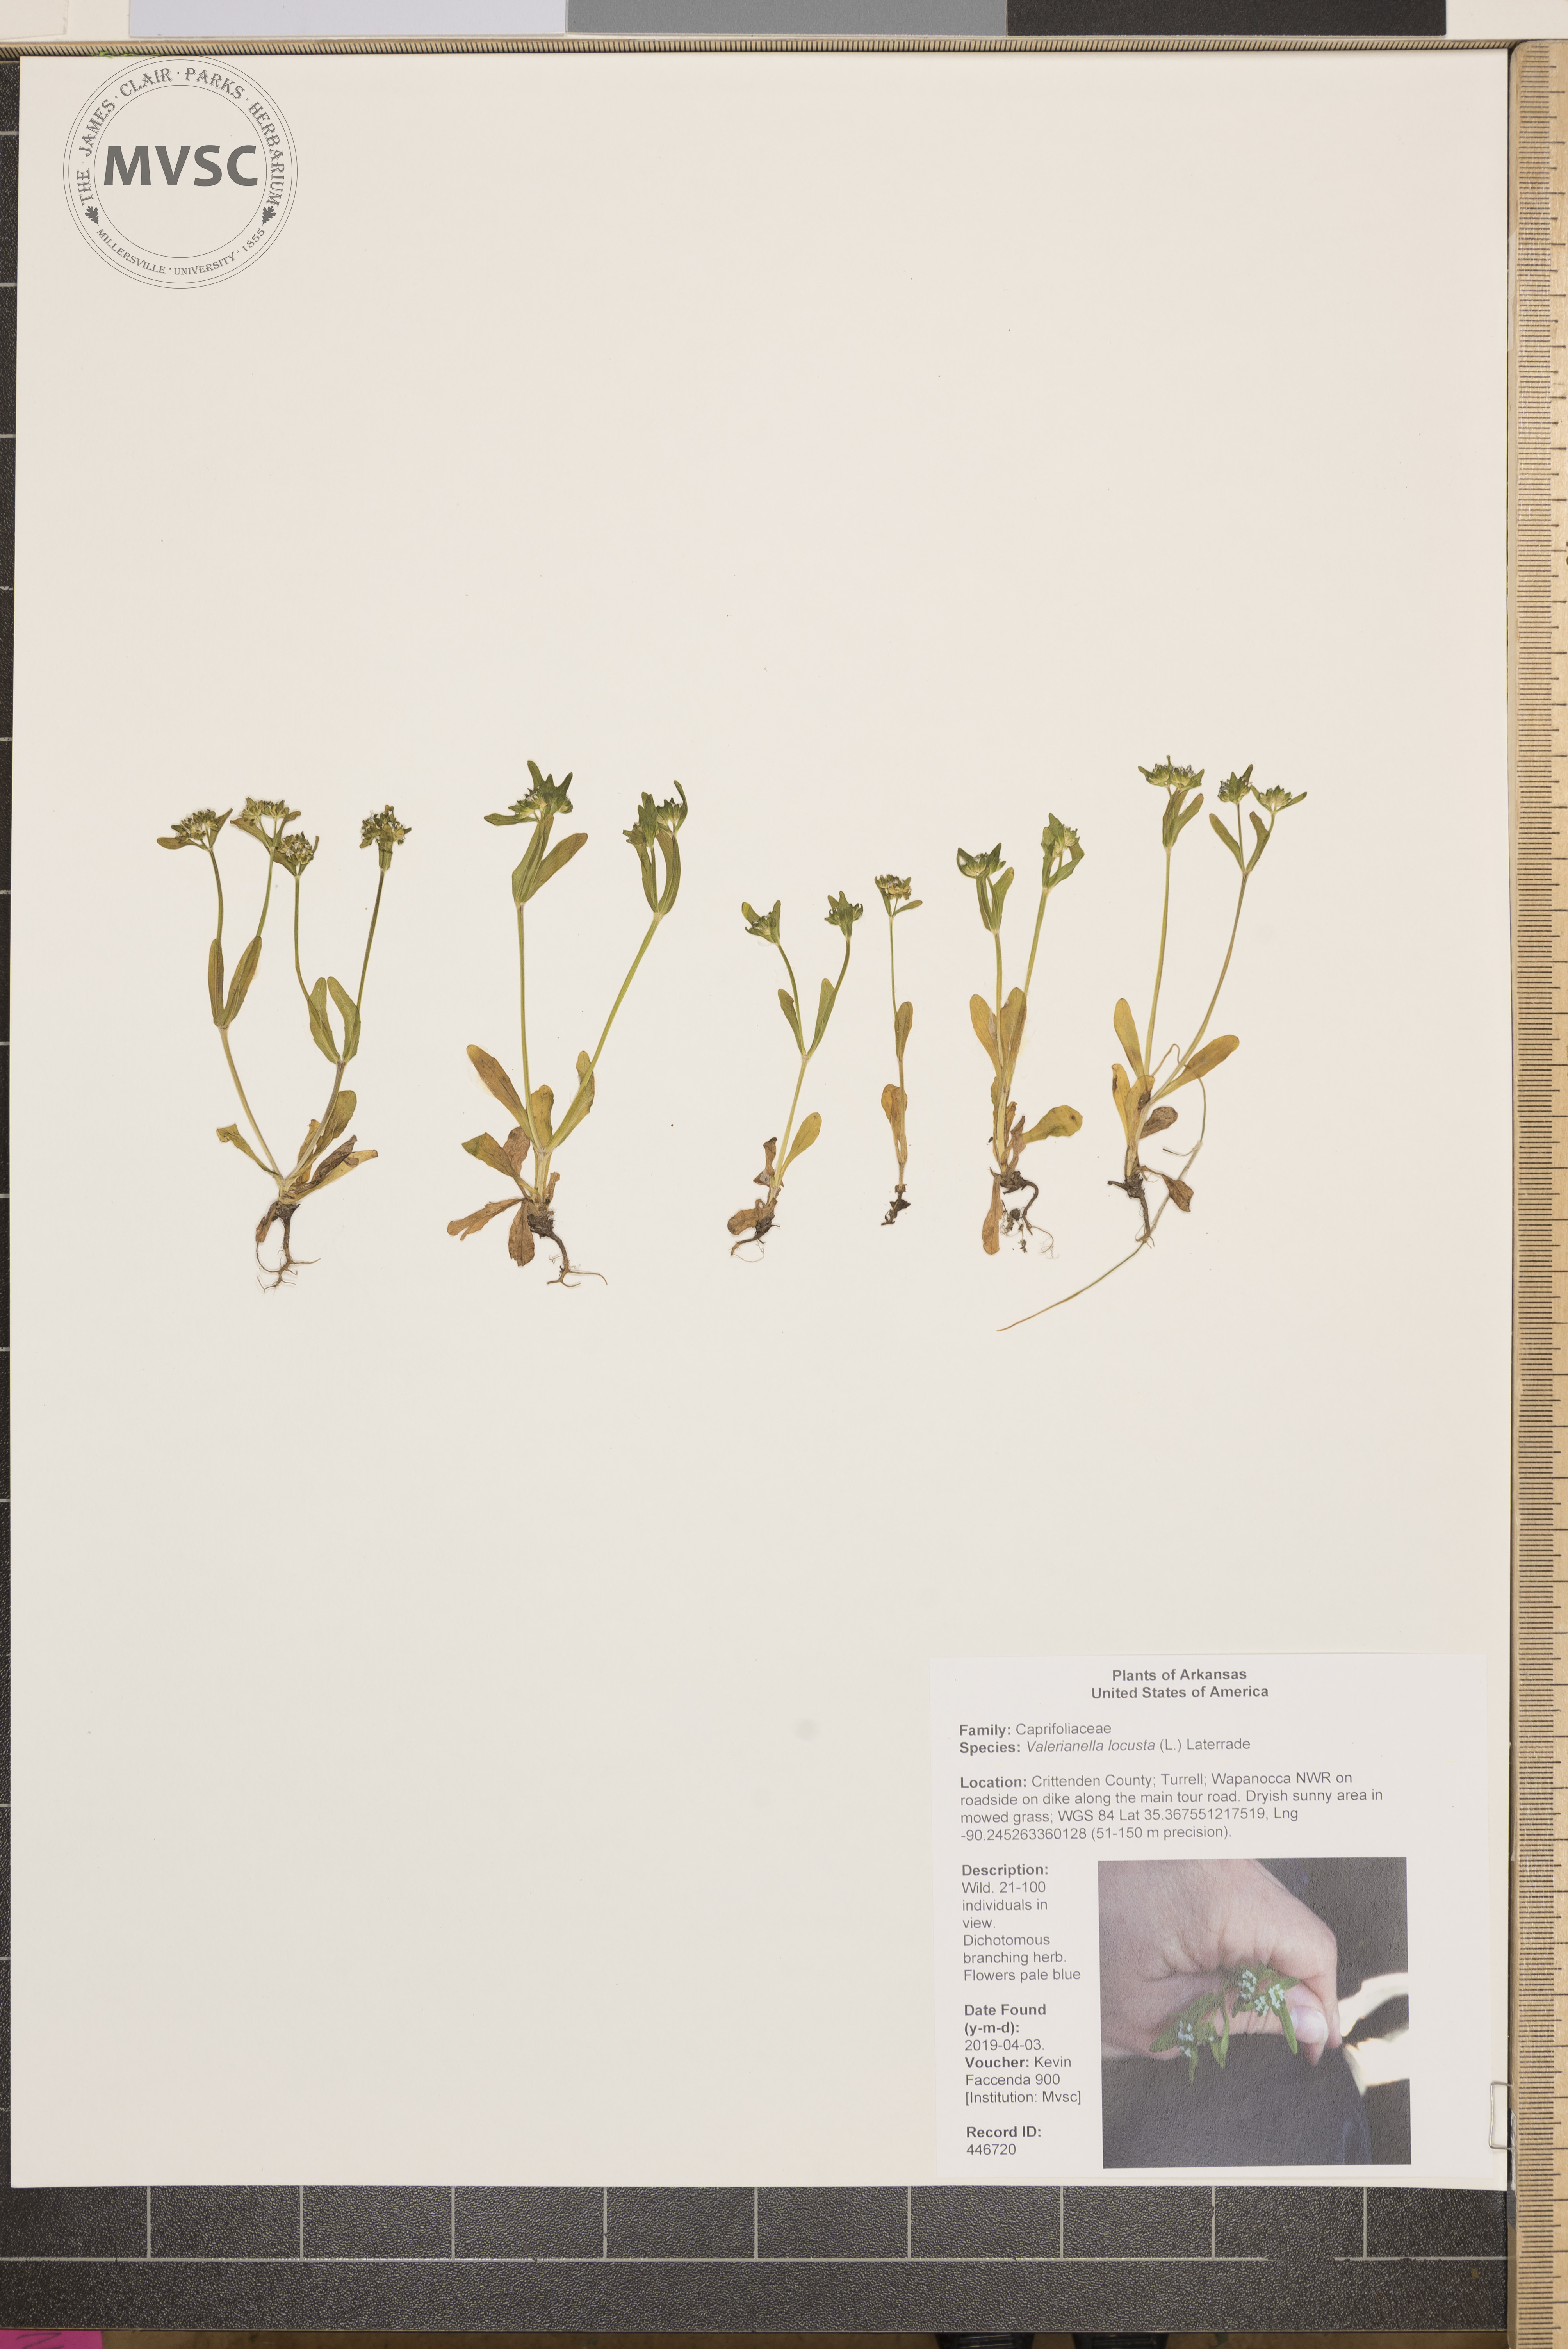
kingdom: Plantae
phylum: Tracheophyta
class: Magnoliopsida
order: Dipsacales
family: Caprifoliaceae
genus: Valerianella
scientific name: Valerianella locusta
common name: Common cornsalad
